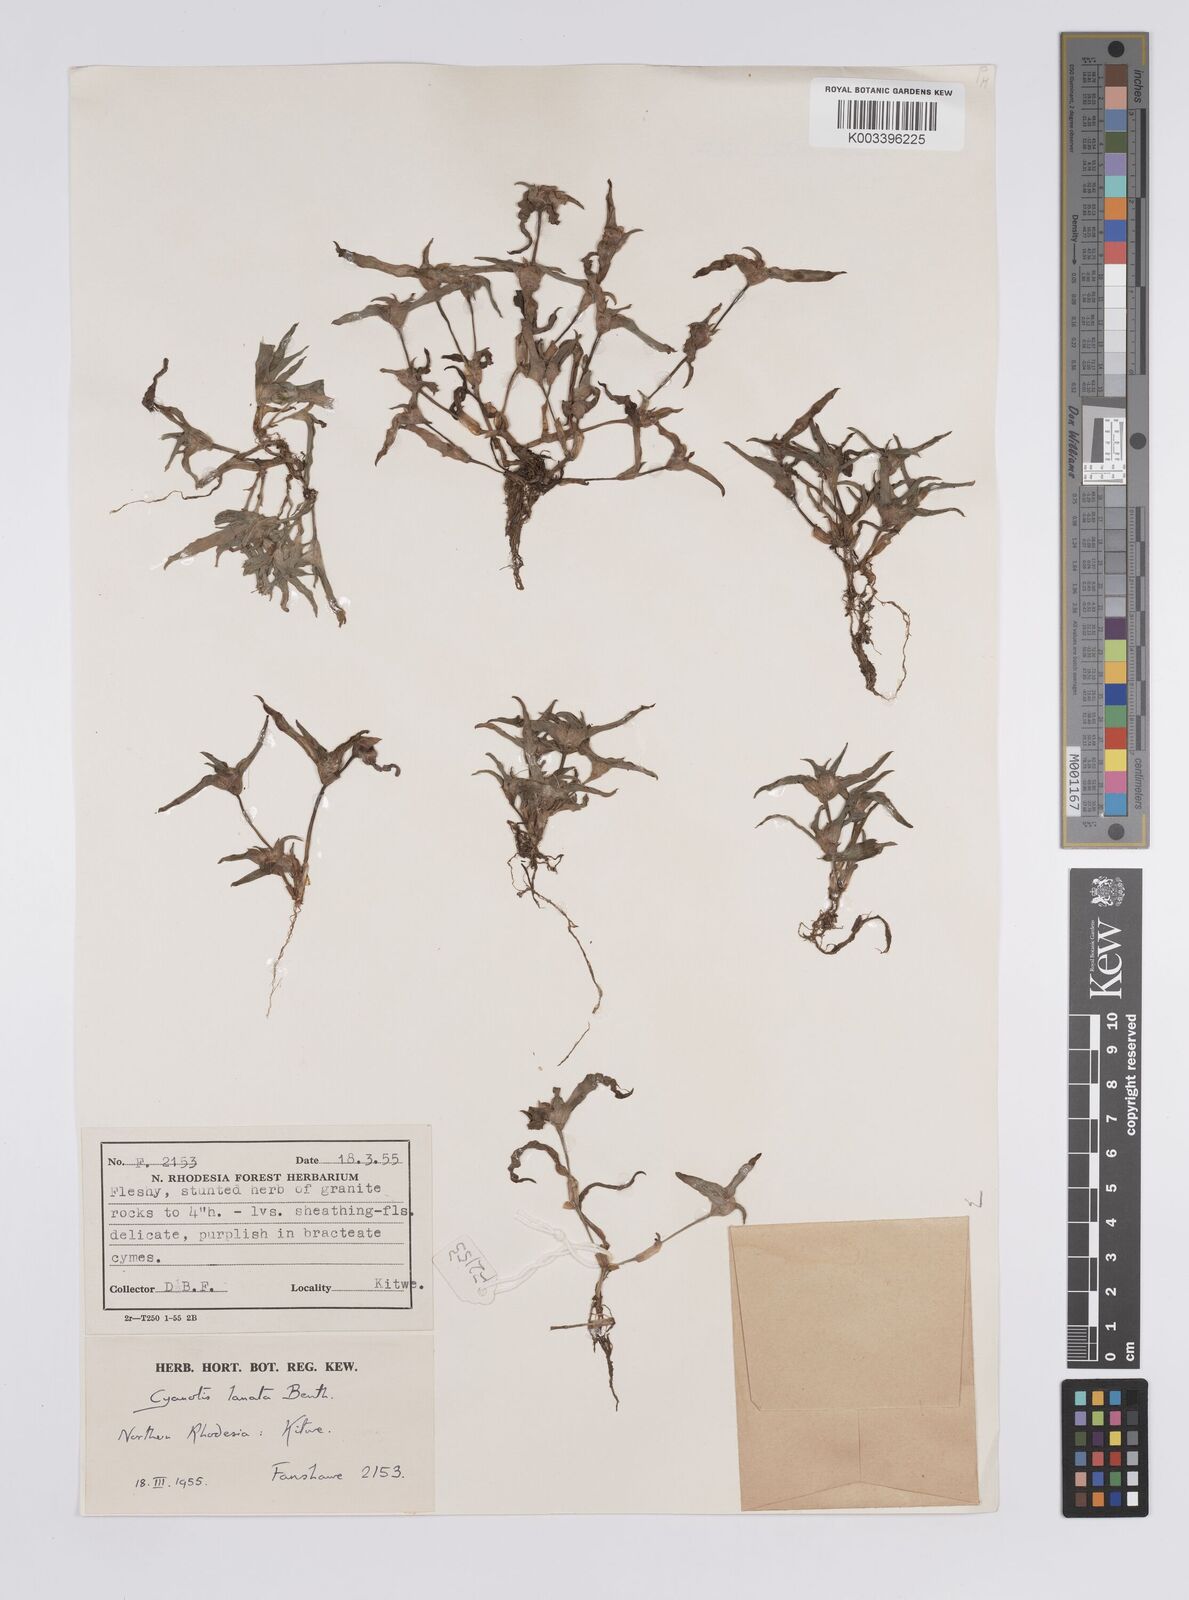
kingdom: Plantae
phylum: Tracheophyta
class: Liliopsida
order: Commelinales
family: Commelinaceae
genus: Cyanotis
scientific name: Cyanotis lanata
